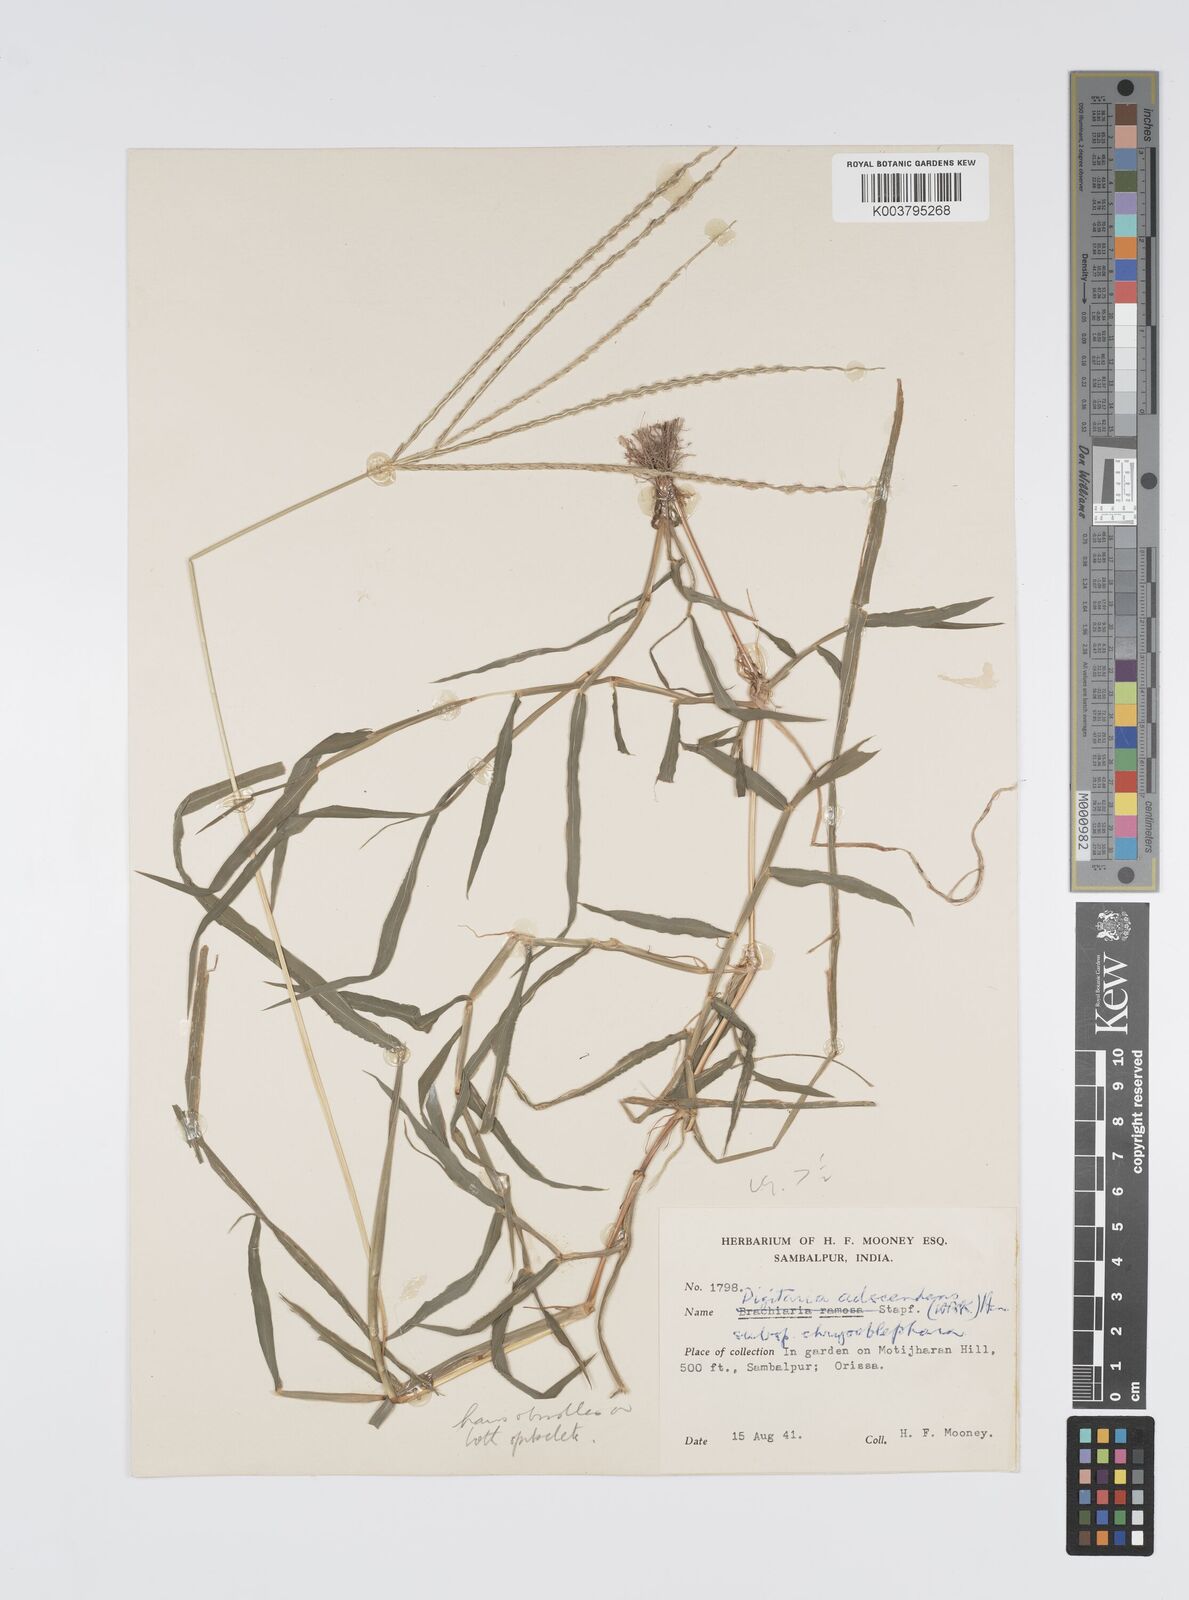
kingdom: Plantae
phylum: Tracheophyta
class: Liliopsida
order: Poales
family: Poaceae
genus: Digitaria
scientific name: Digitaria ciliaris
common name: Tropical finger-grass
